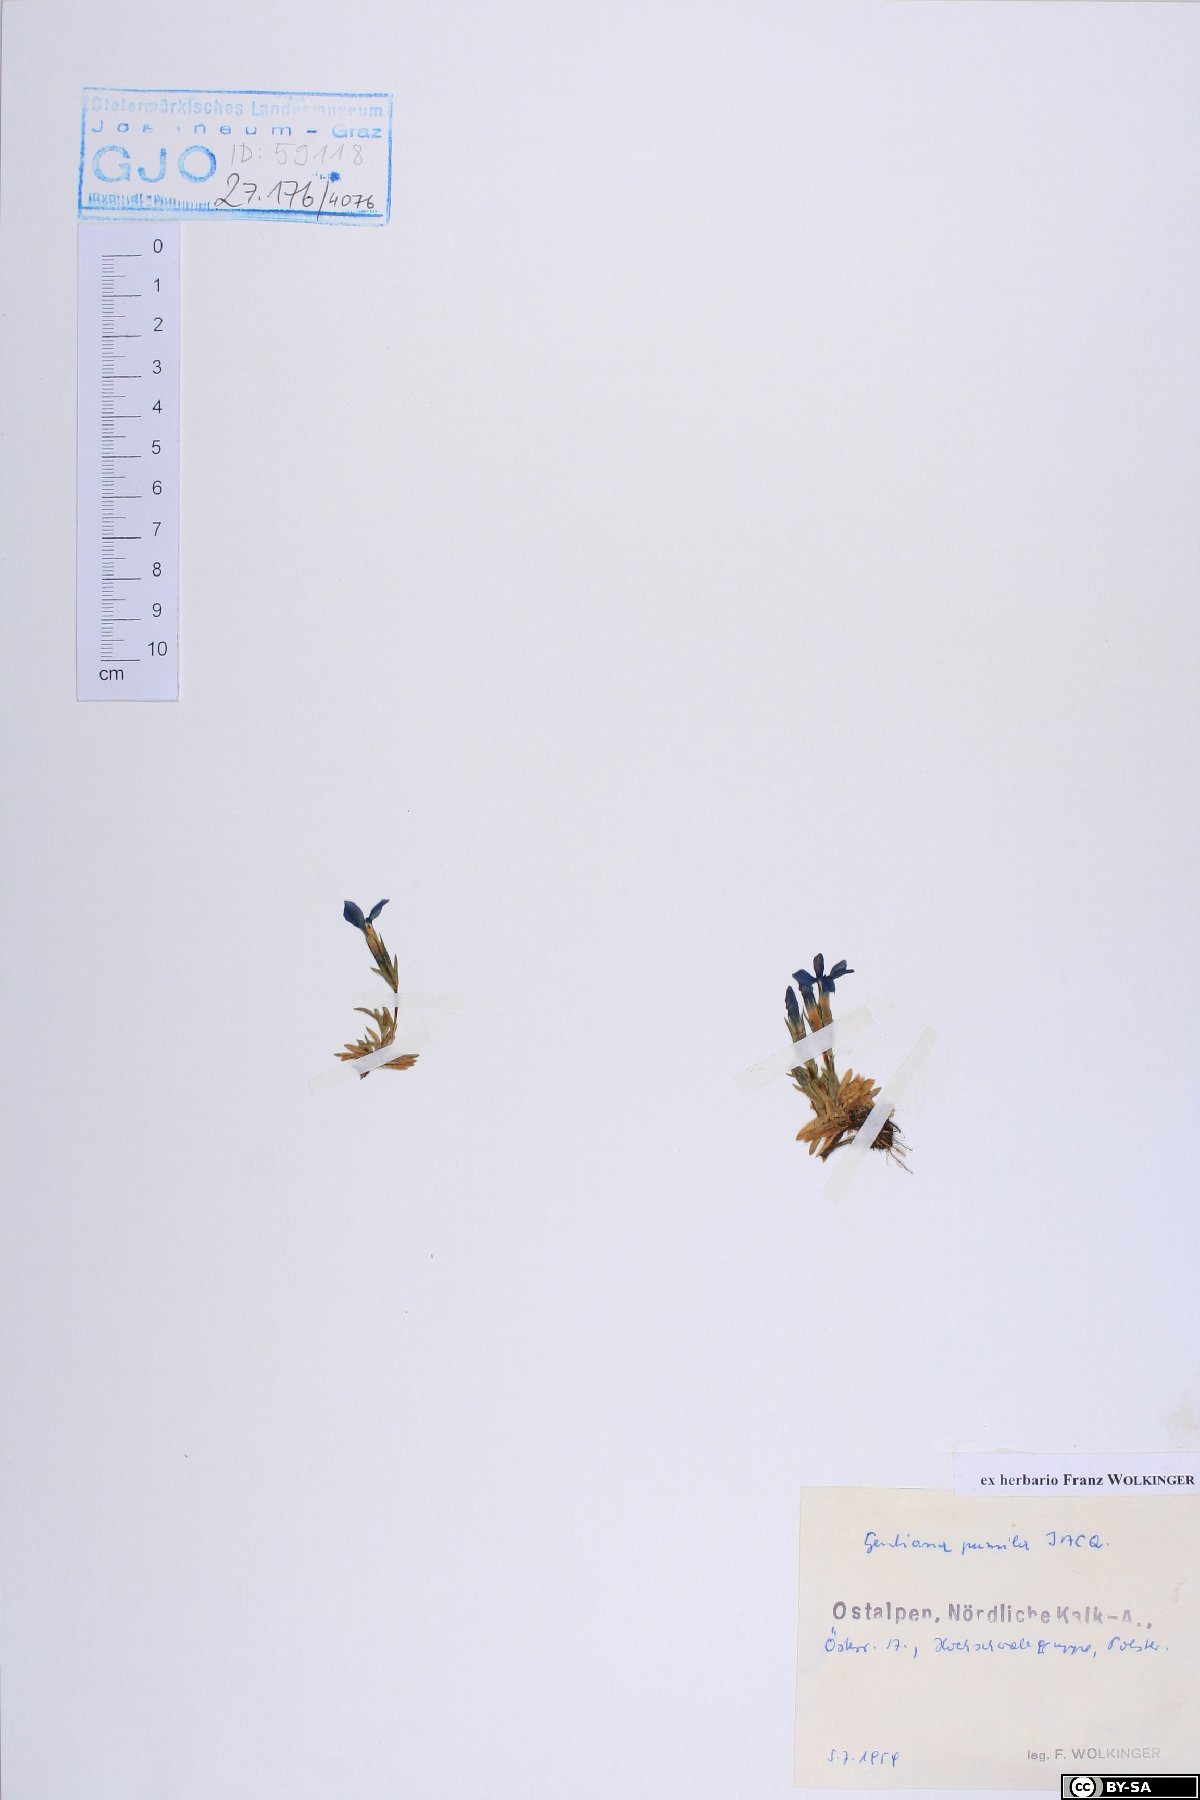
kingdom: Plantae
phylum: Tracheophyta
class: Magnoliopsida
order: Gentianales
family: Gentianaceae
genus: Gentiana
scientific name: Gentiana pumila
